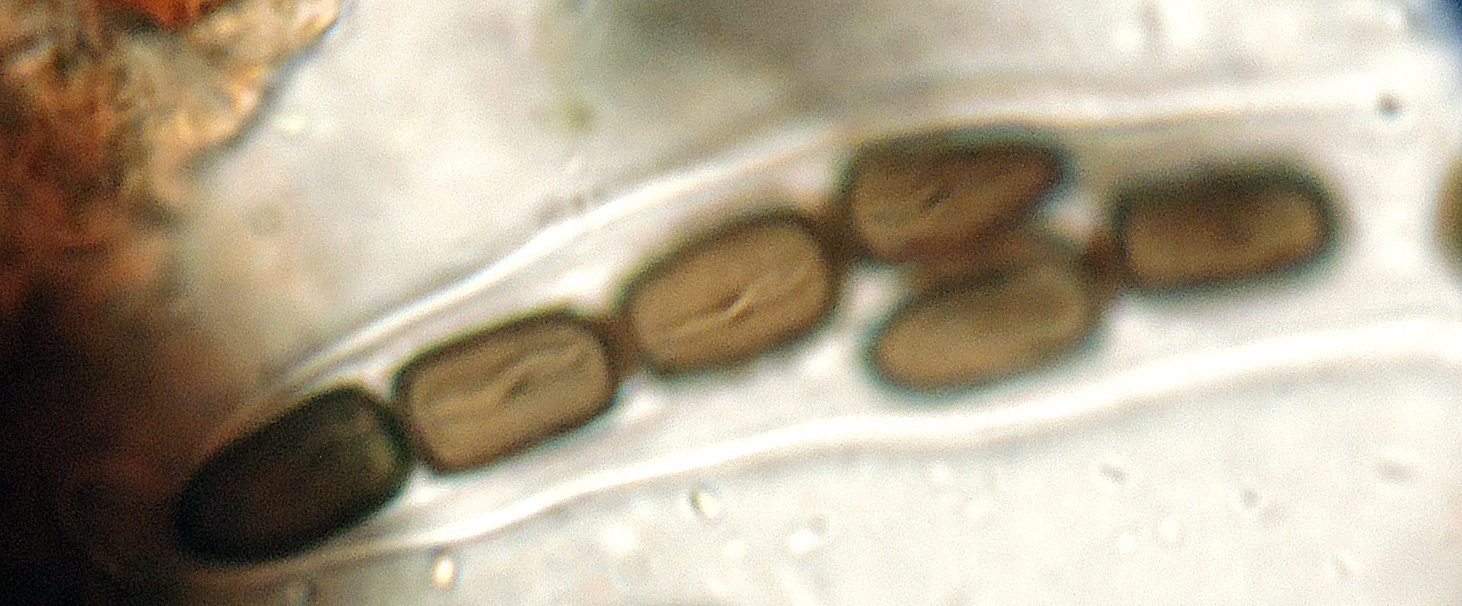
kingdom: Fungi
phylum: Ascomycota
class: Dothideomycetes
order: Pleosporales
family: Sporormiaceae
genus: Sporormiella
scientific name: Sporormiella minima
